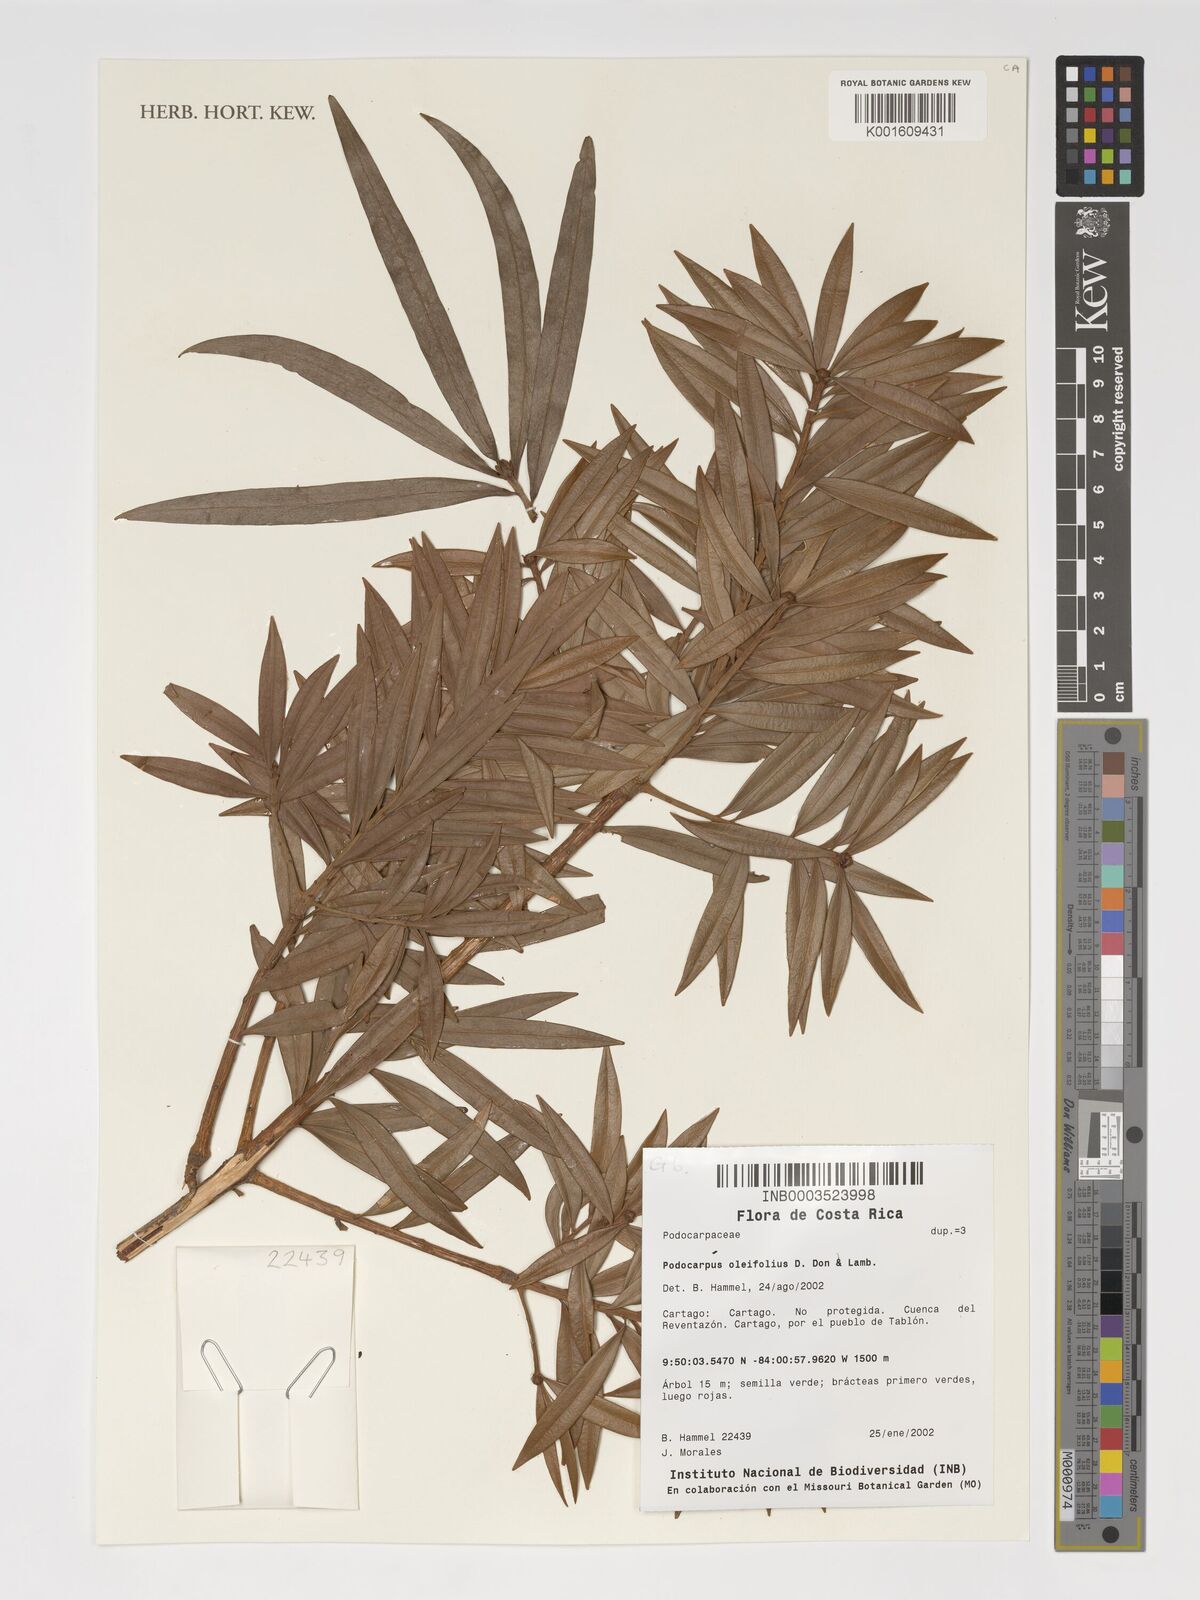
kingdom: Plantae
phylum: Tracheophyta
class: Pinopsida
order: Pinales
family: Podocarpaceae
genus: Podocarpus
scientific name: Podocarpus oleifolius
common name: Olive-leaf podoberry
